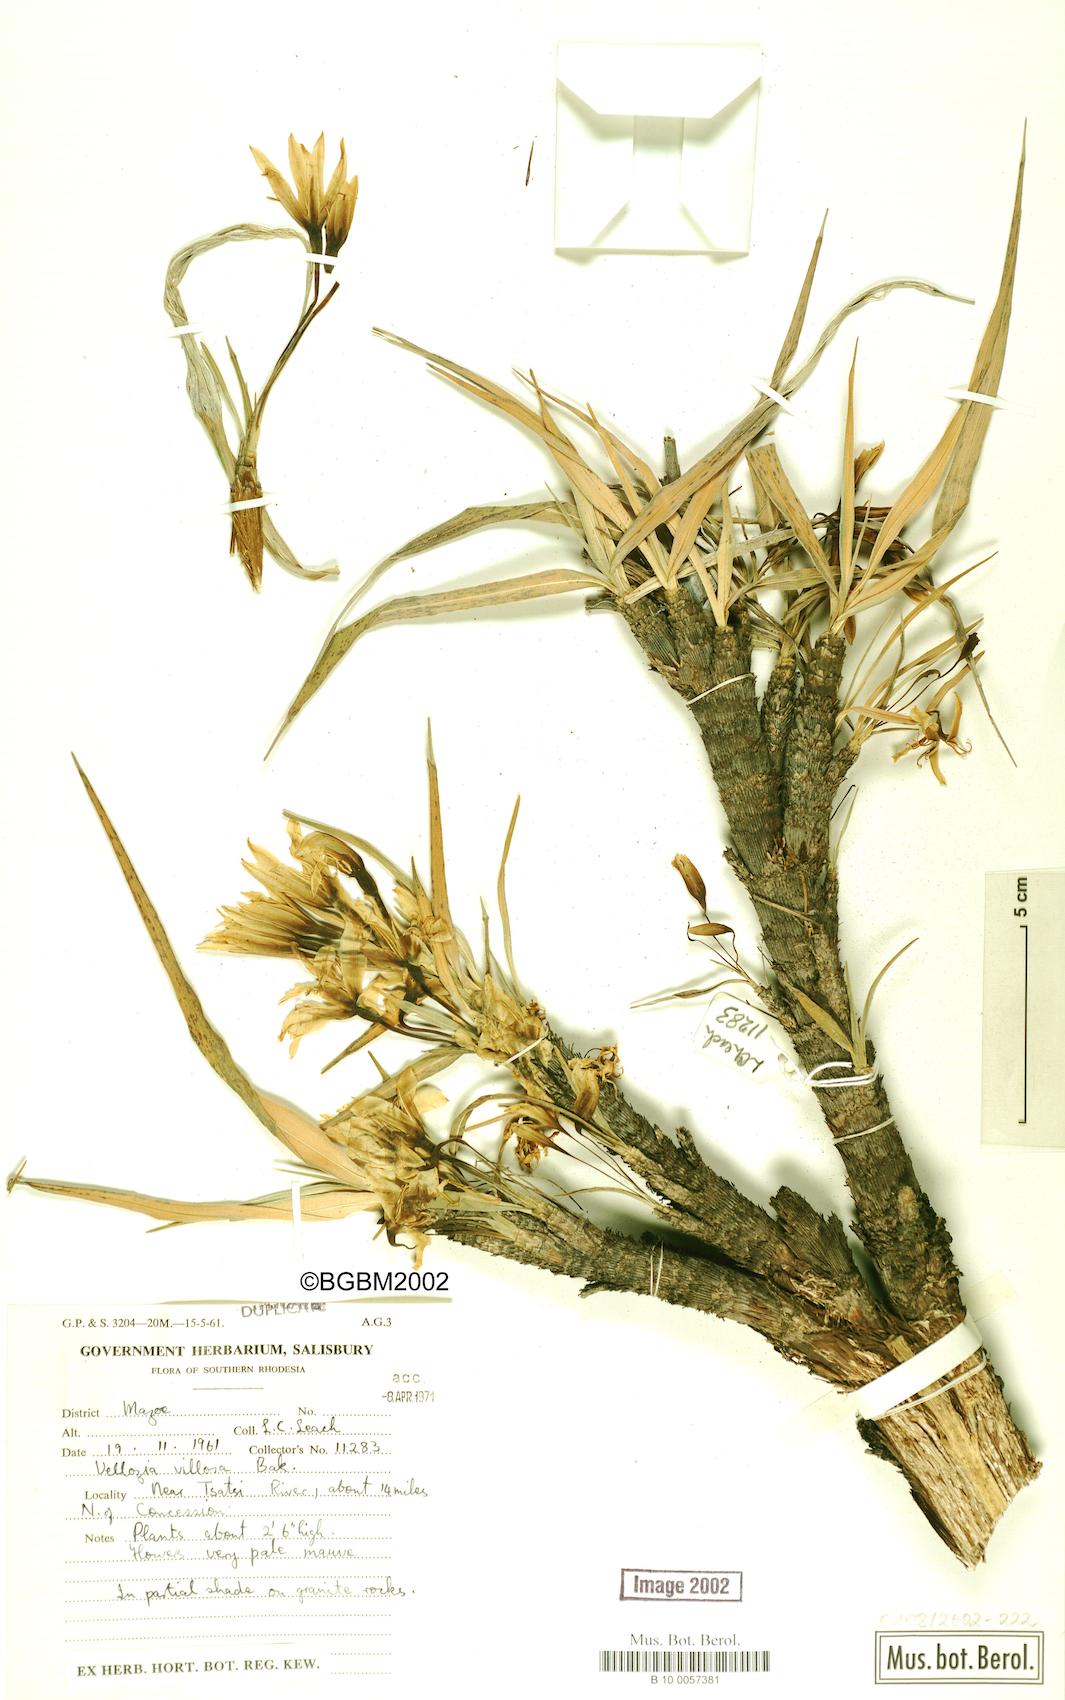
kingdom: Plantae
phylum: Tracheophyta
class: Liliopsida
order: Pandanales
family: Velloziaceae
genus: Xerophyta
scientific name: Xerophyta villosa
